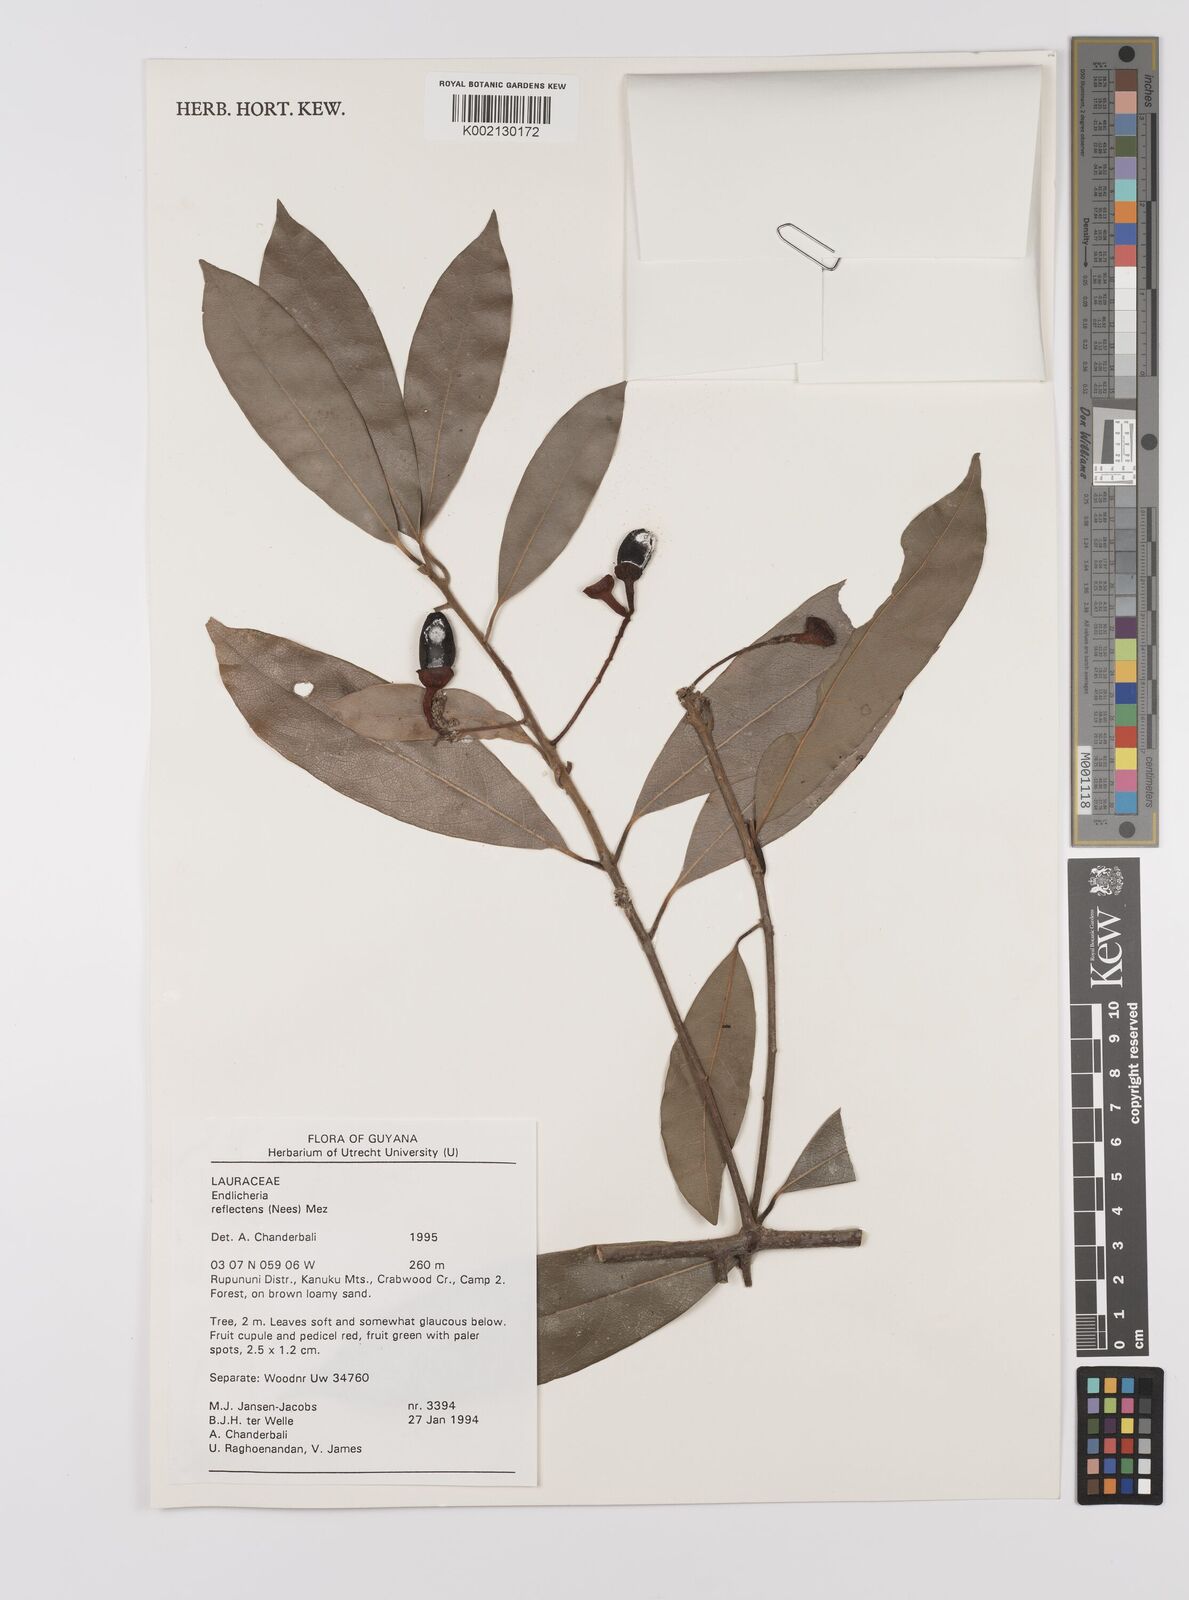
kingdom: Plantae
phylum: Tracheophyta
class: Magnoliopsida
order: Laurales
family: Lauraceae
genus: Endlicheria
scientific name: Endlicheria reflectens
